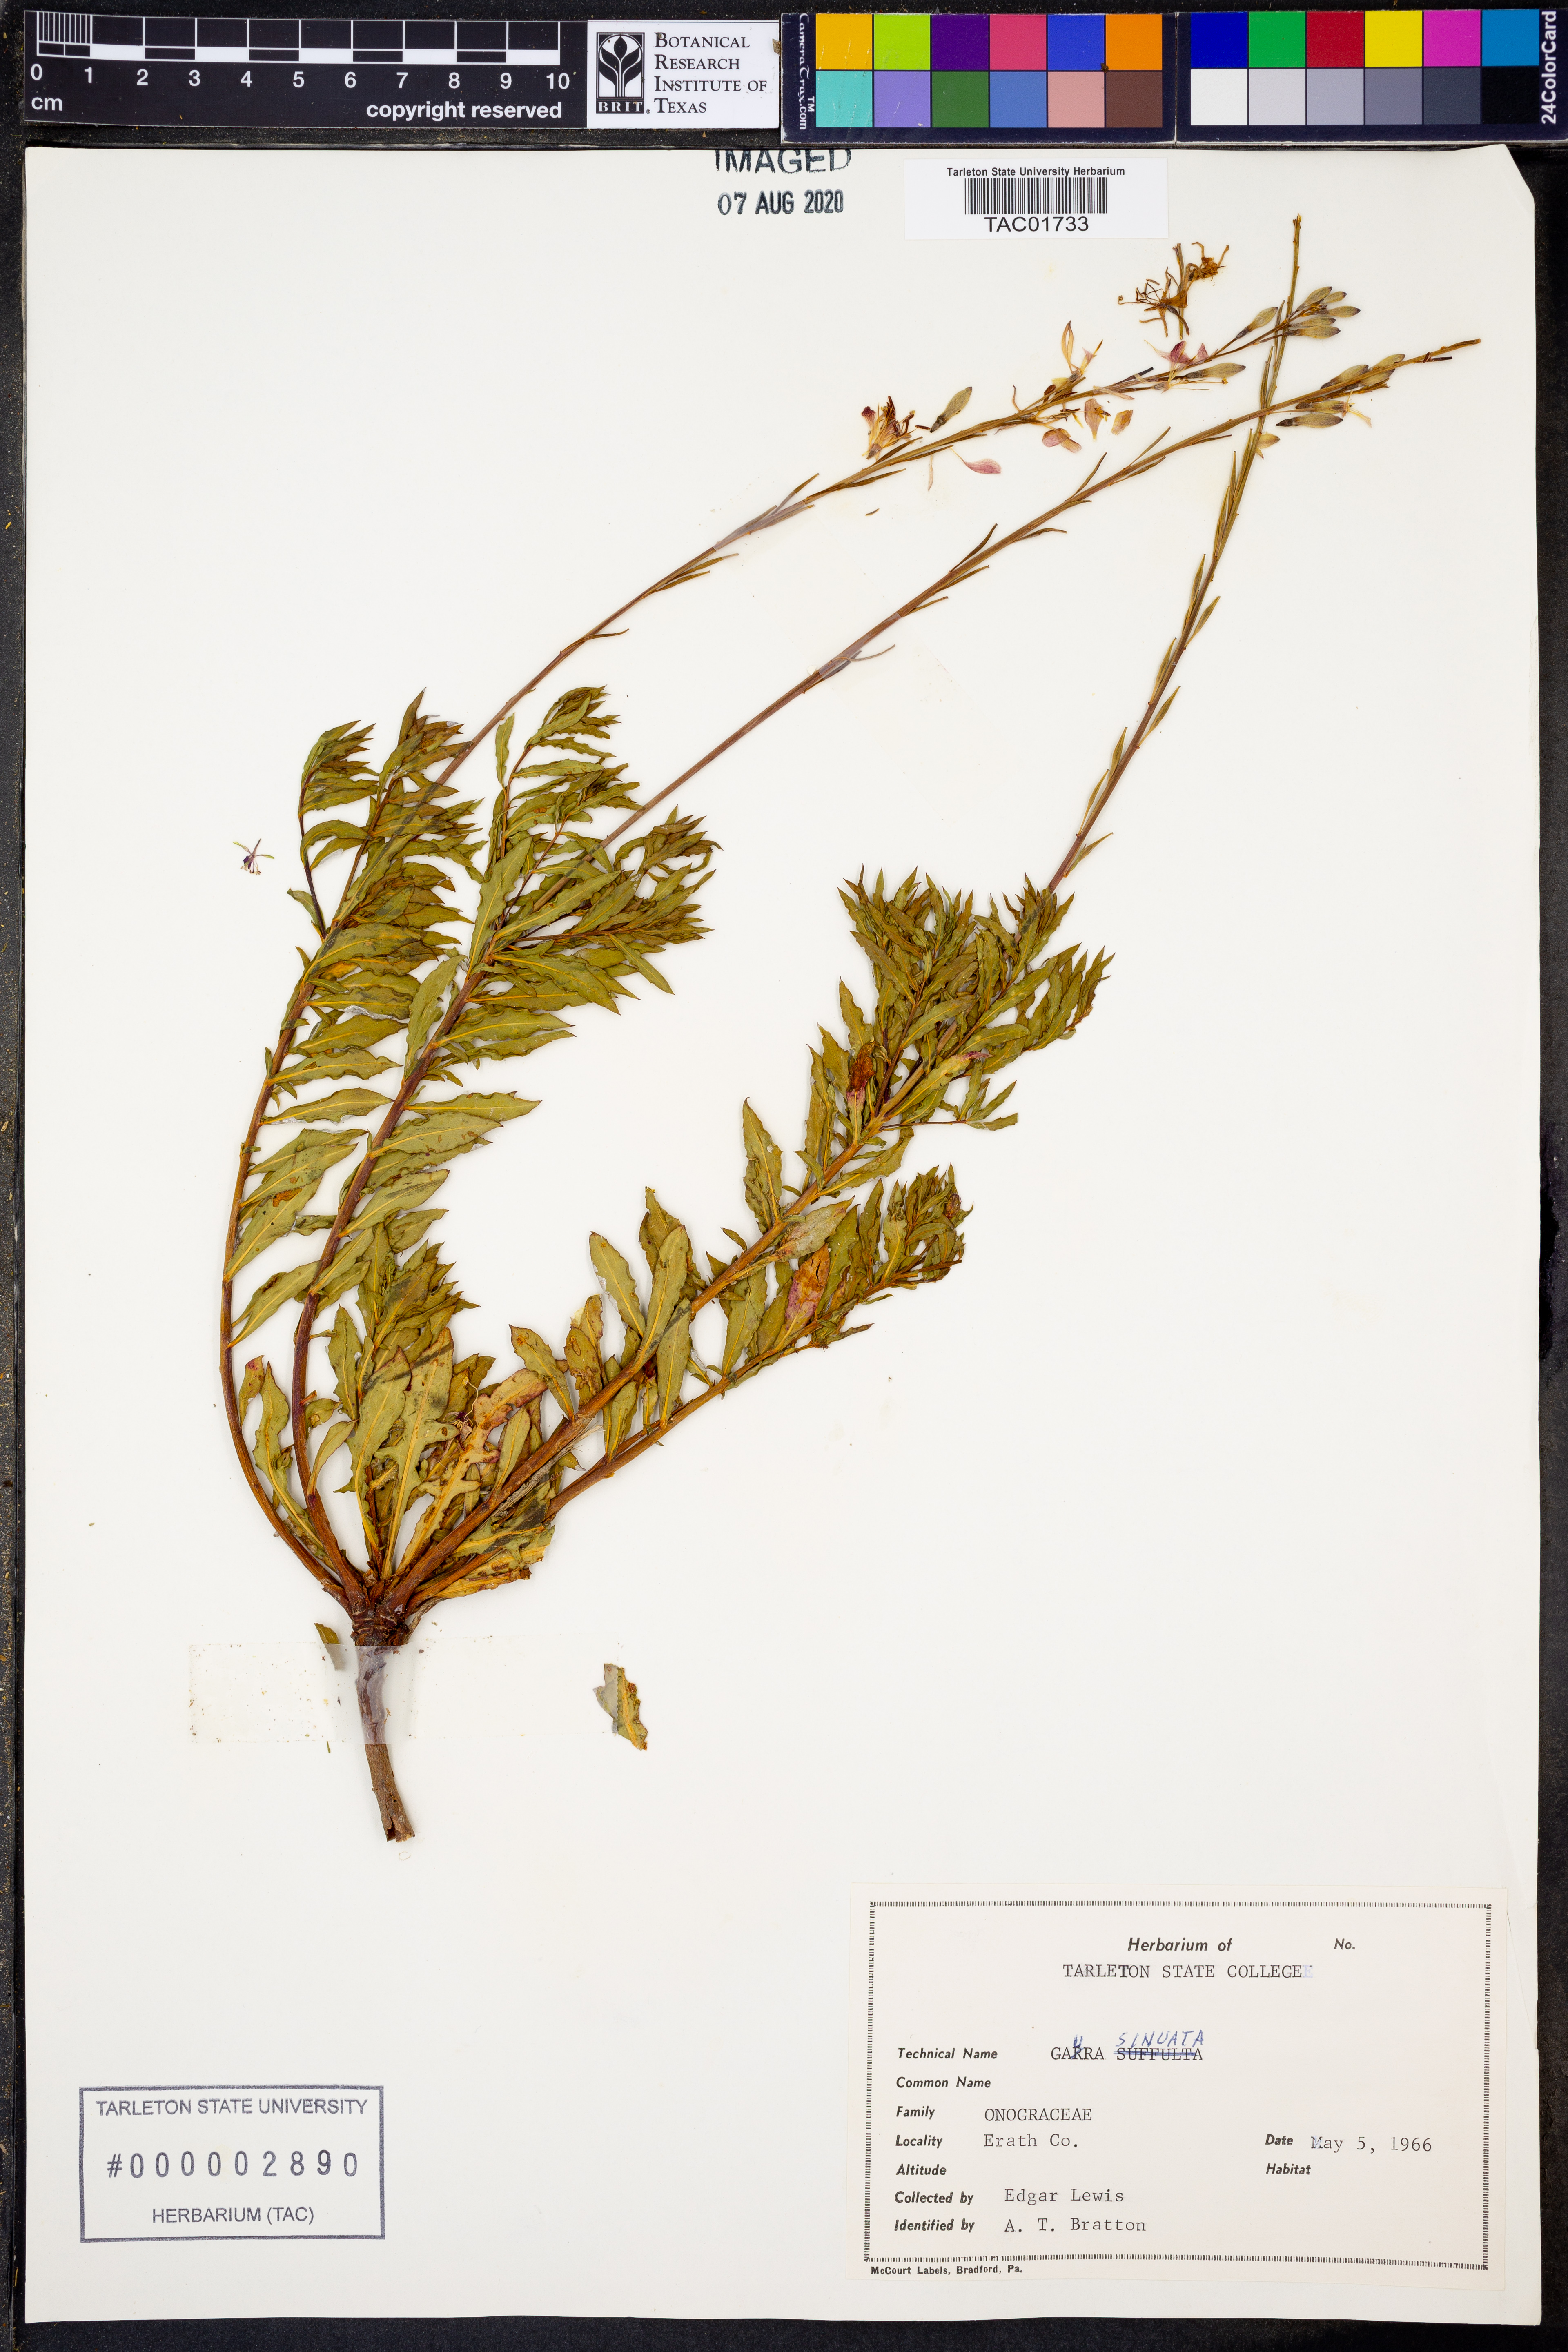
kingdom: Plantae
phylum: Tracheophyta
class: Magnoliopsida
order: Myrtales
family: Onagraceae
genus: Oenothera
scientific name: Oenothera sinuosa
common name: Wavyleaf beeblossom
